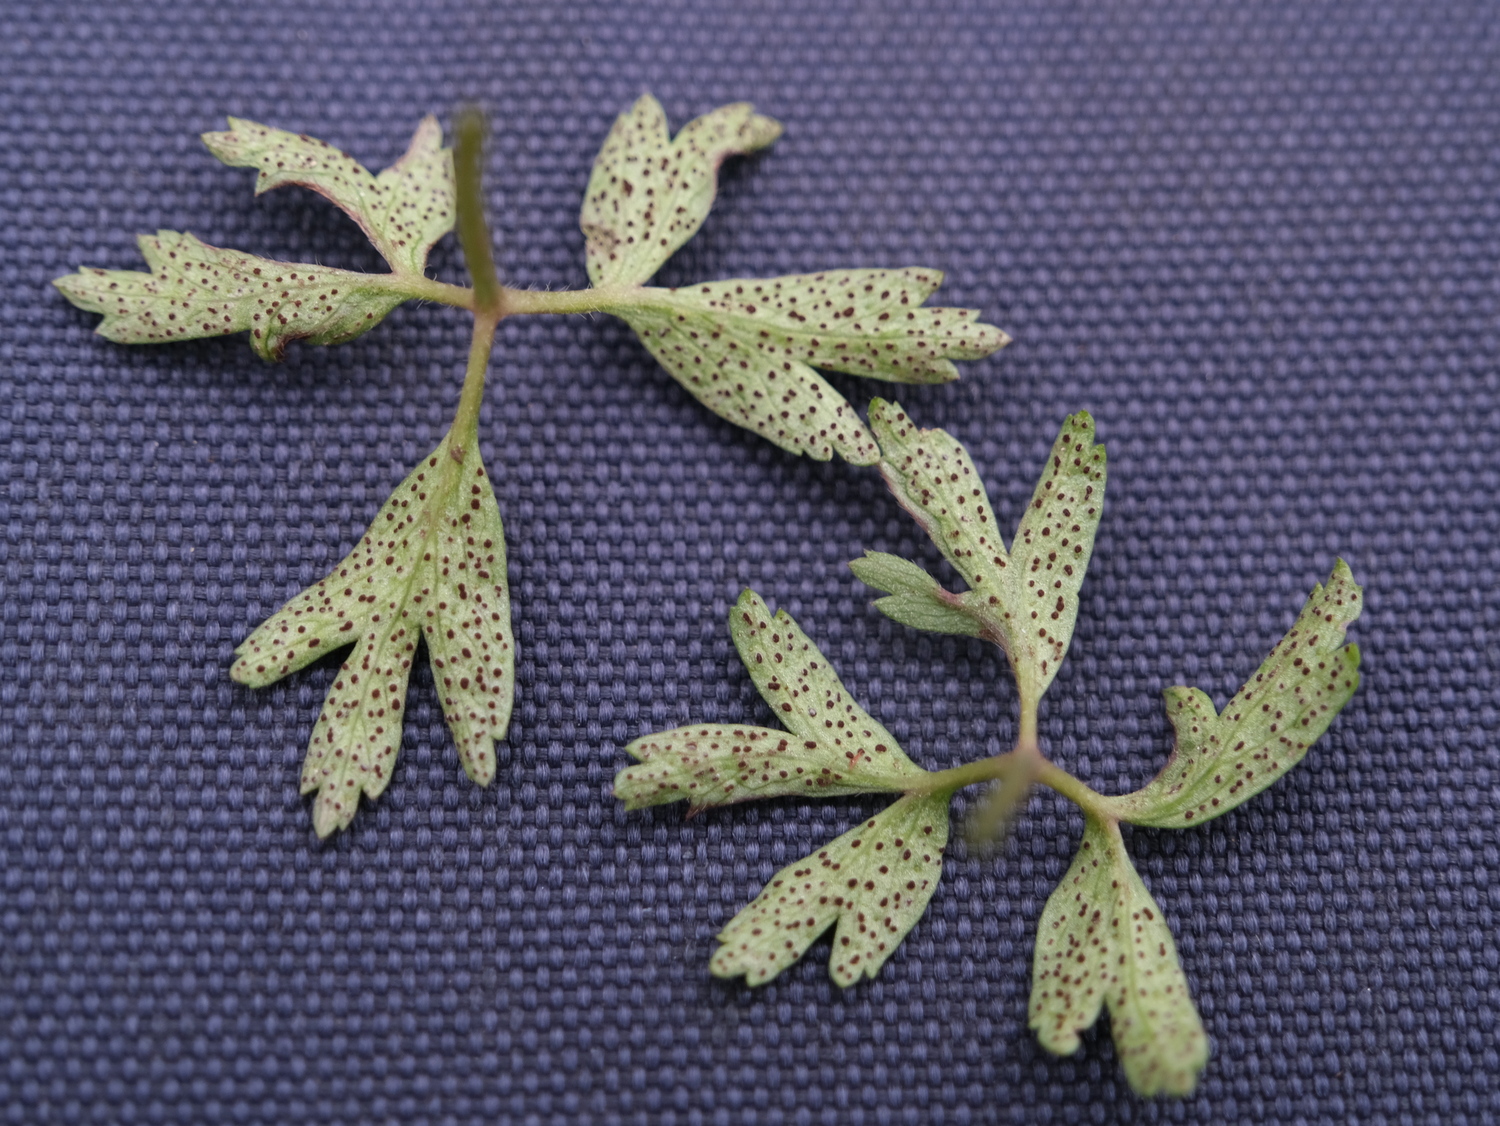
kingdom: Fungi
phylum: Basidiomycota
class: Pucciniomycetes
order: Pucciniales
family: Tranzscheliaceae
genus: Tranzschelia
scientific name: Tranzschelia anemones
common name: anemone-knæksporerust
